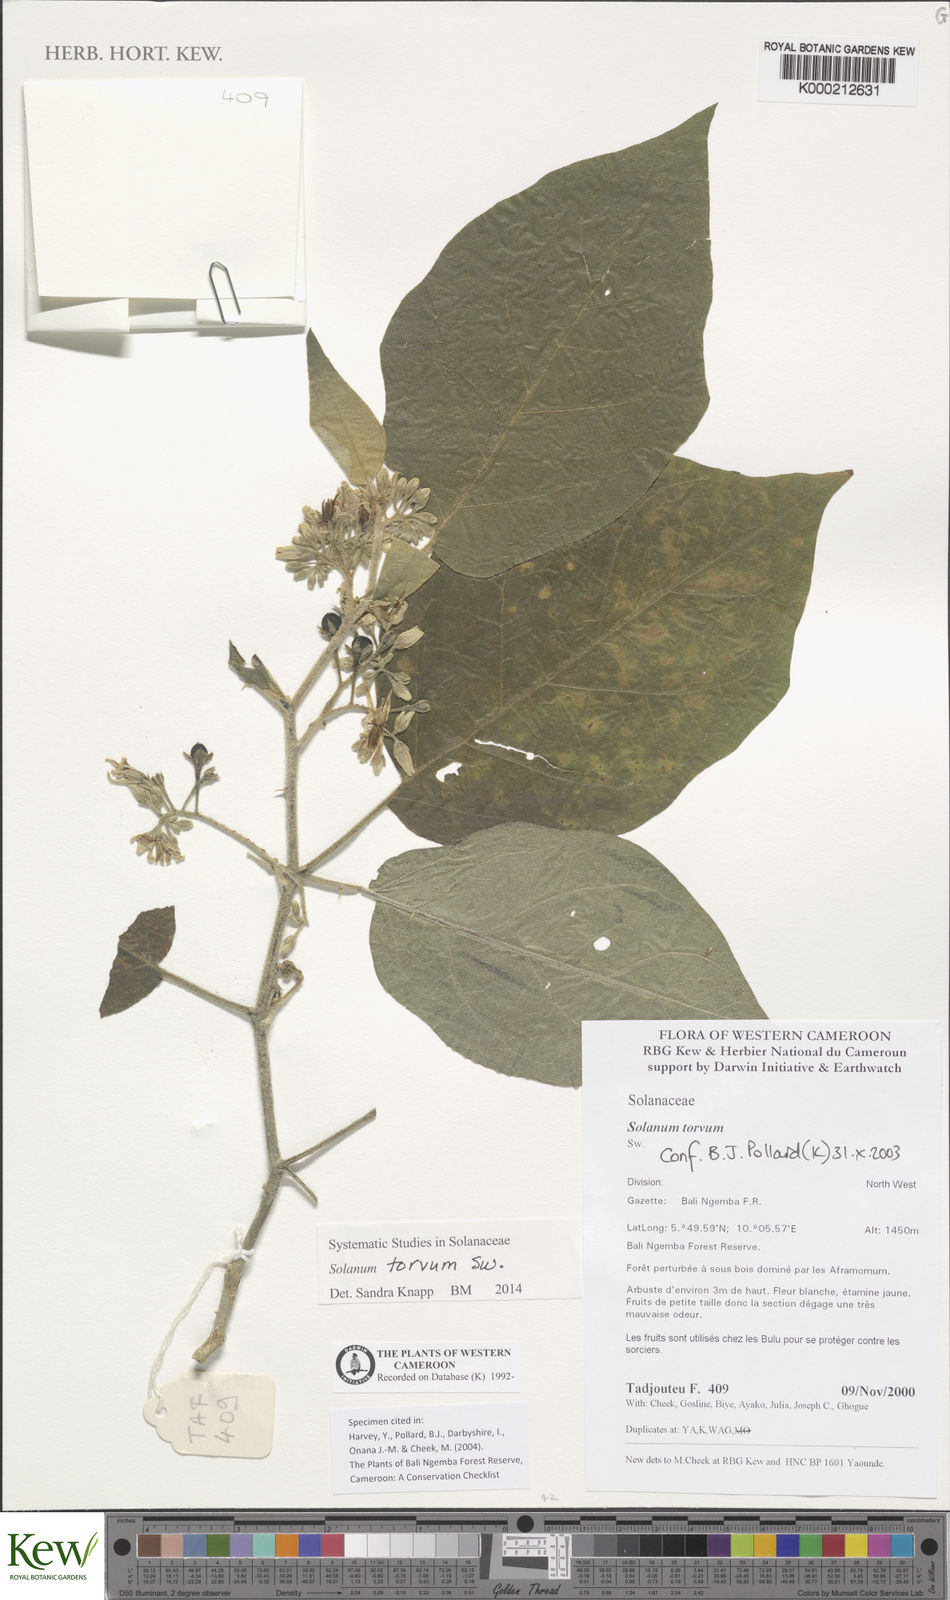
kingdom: Plantae
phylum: Tracheophyta
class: Magnoliopsida
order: Solanales
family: Solanaceae
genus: Solanum
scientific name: Solanum torvum
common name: Turkey berry
